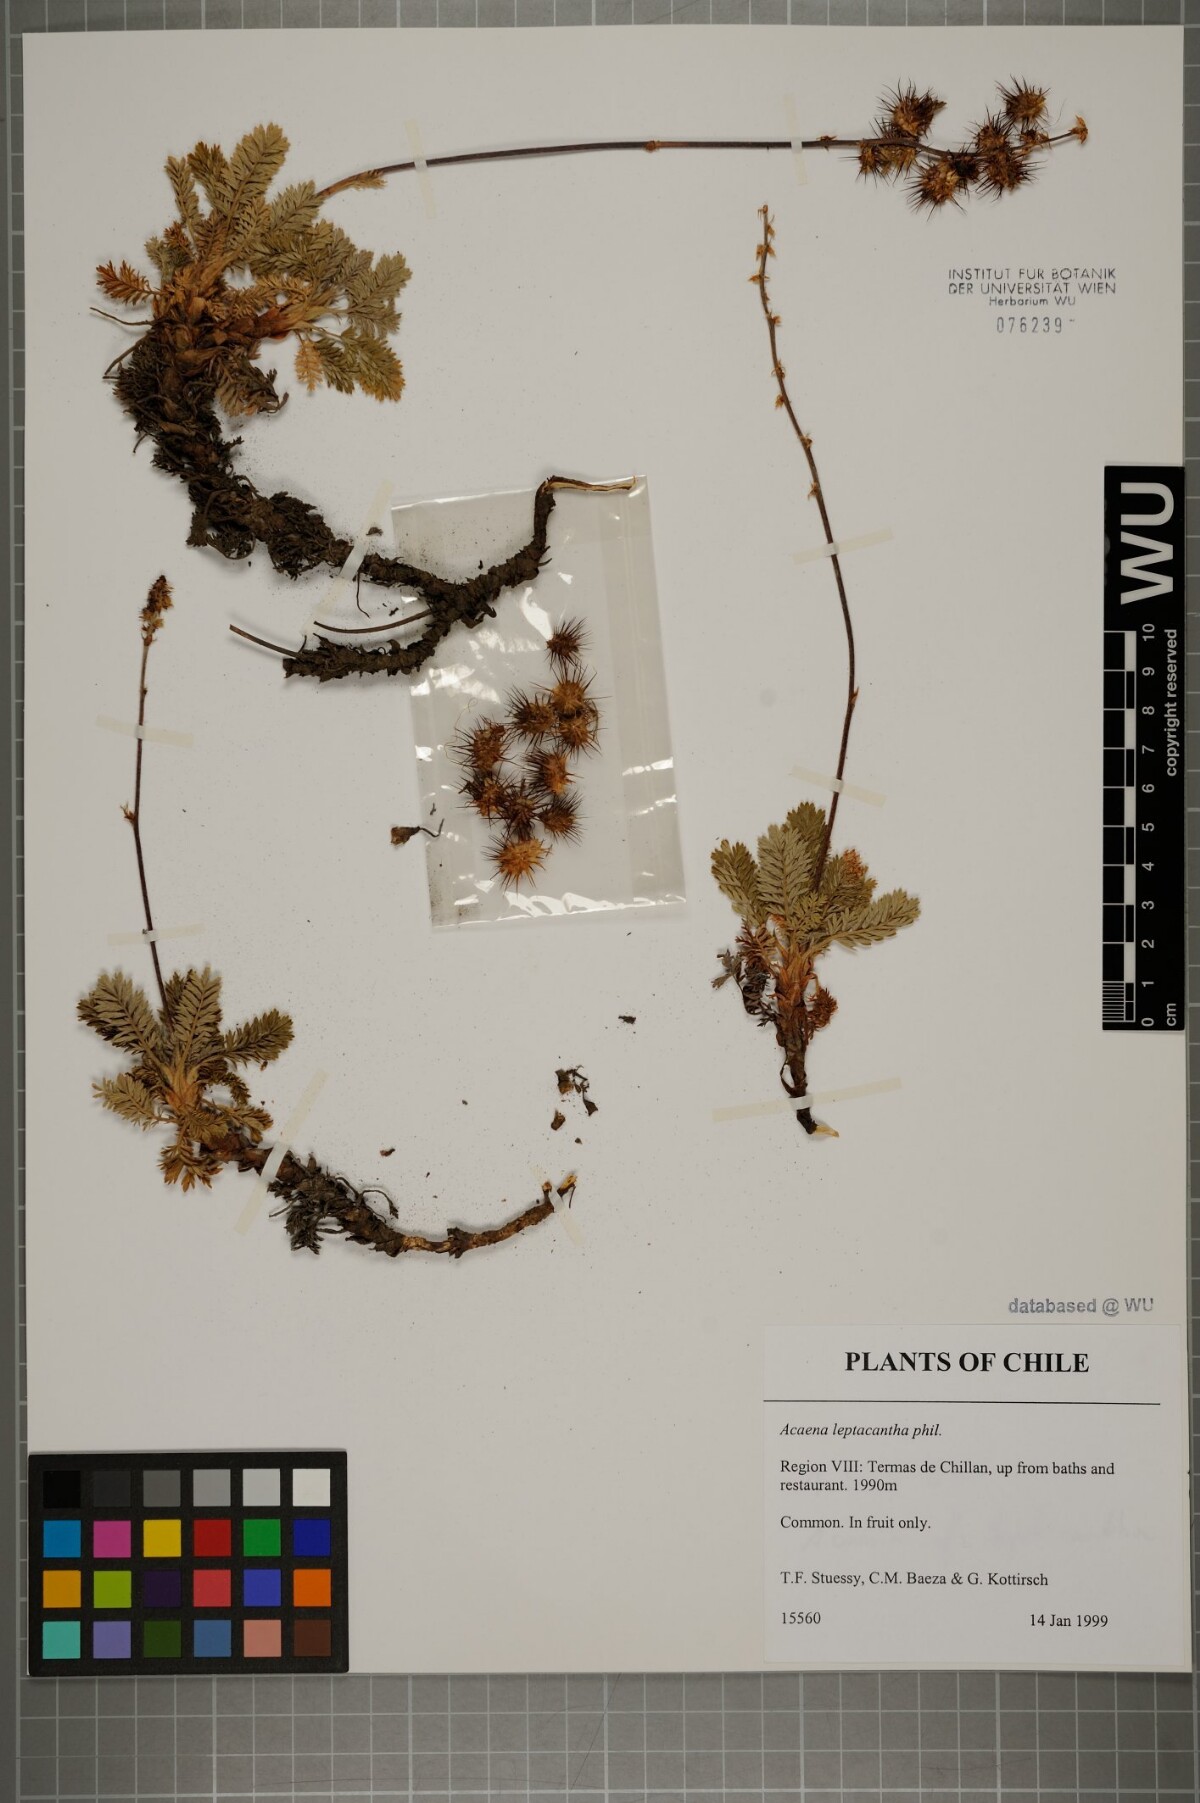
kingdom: Plantae
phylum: Tracheophyta
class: Magnoliopsida
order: Rosales
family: Rosaceae
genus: Acaena
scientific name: Acaena leptacantha
